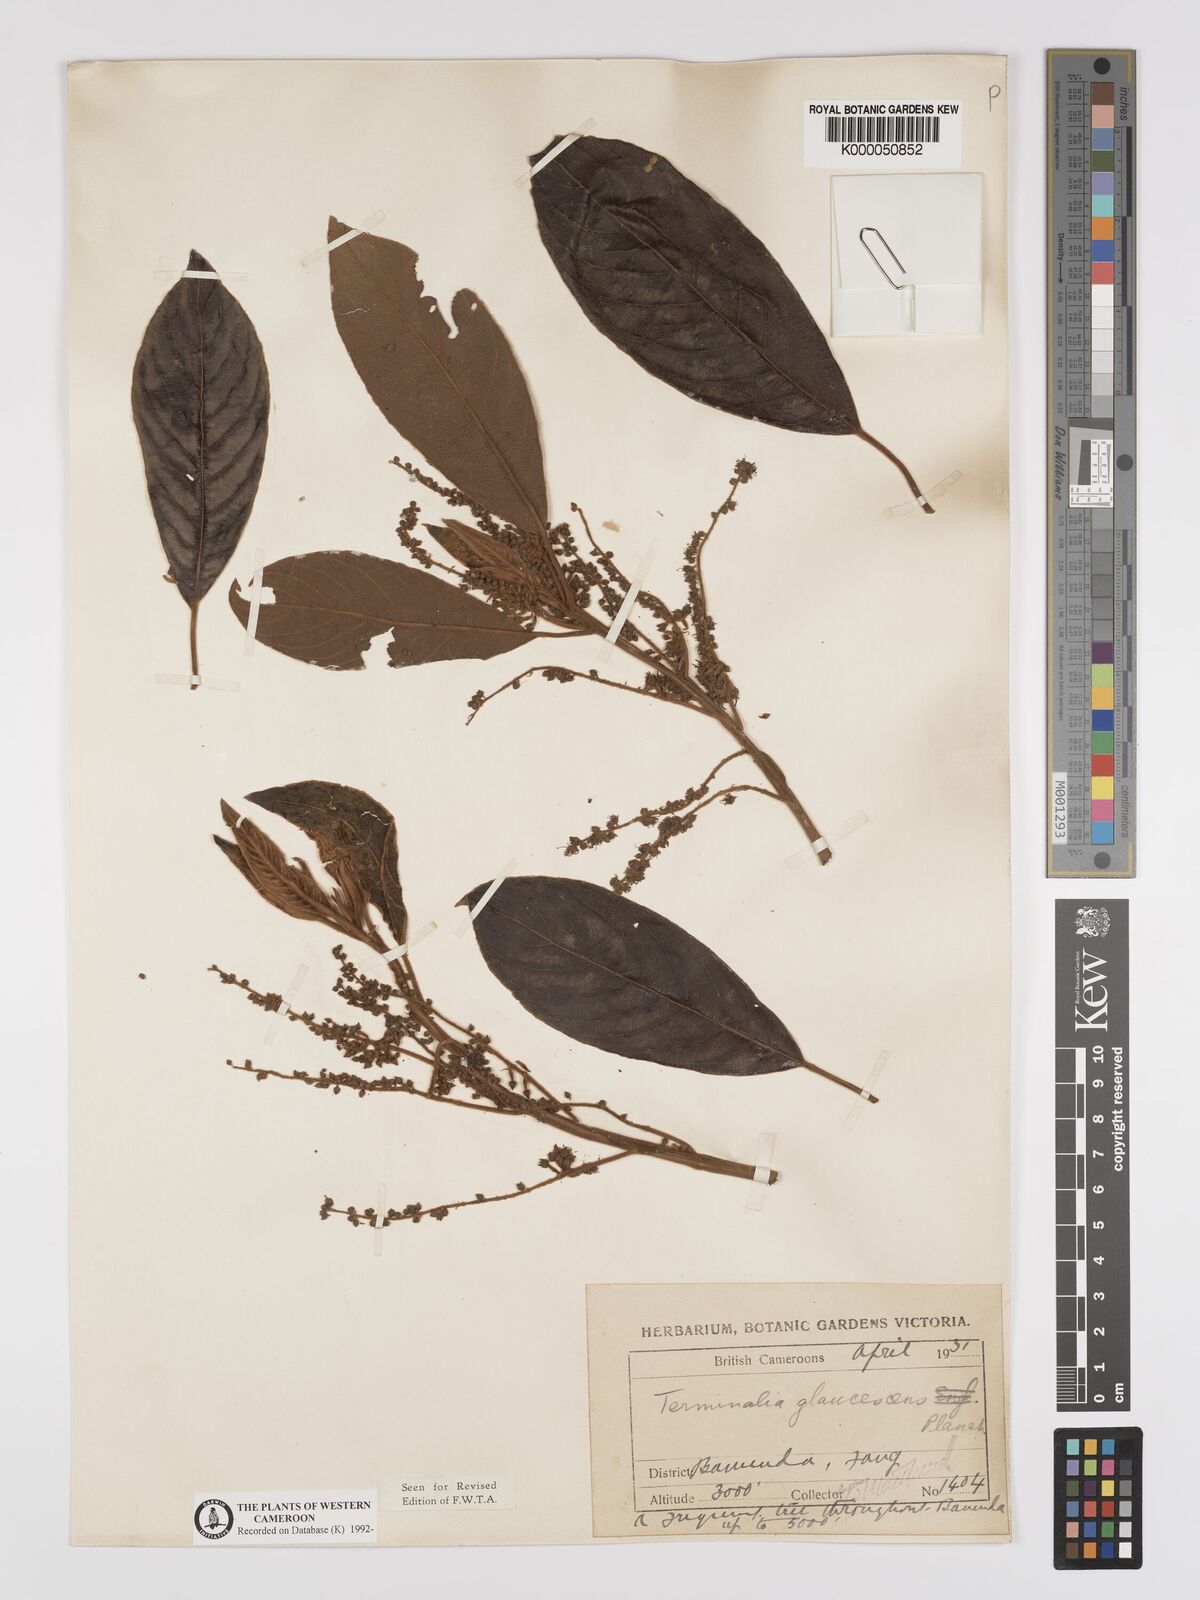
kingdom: Plantae
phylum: Tracheophyta
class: Magnoliopsida
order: Myrtales
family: Combretaceae
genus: Terminalia
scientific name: Terminalia schimperiana
